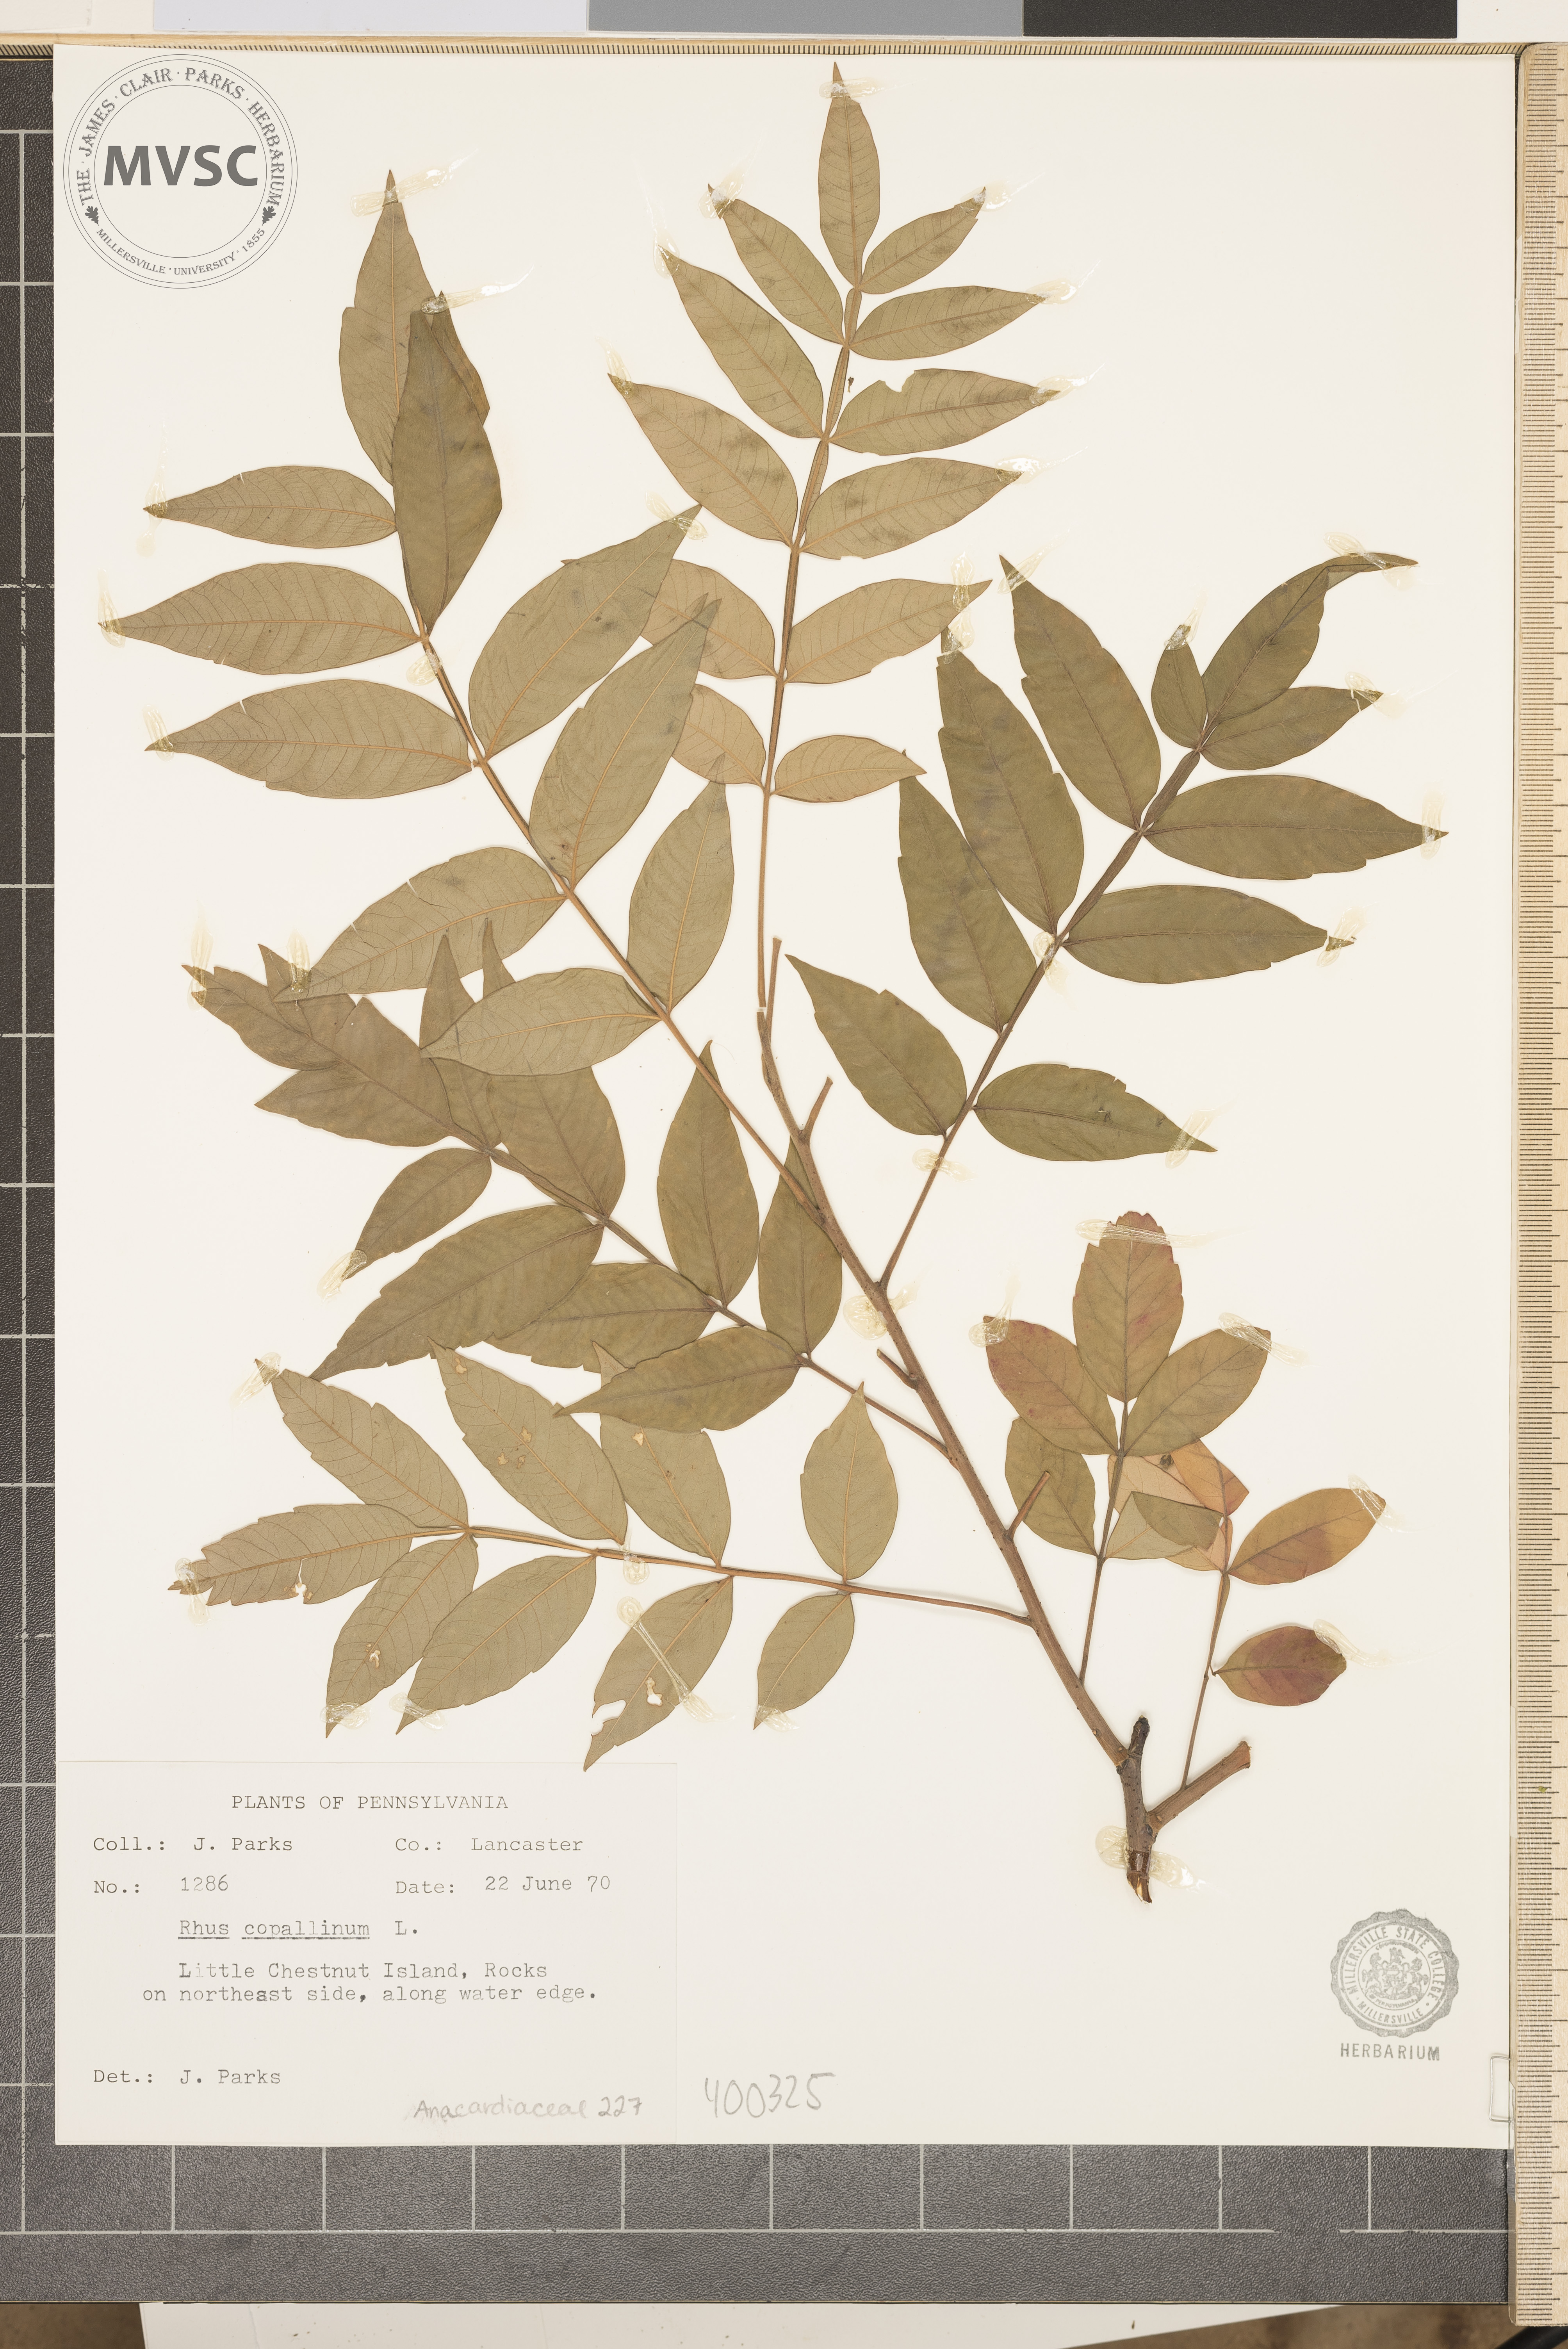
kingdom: Plantae
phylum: Tracheophyta
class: Magnoliopsida
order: Sapindales
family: Anacardiaceae
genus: Rhus
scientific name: Rhus copallina
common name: sumac
